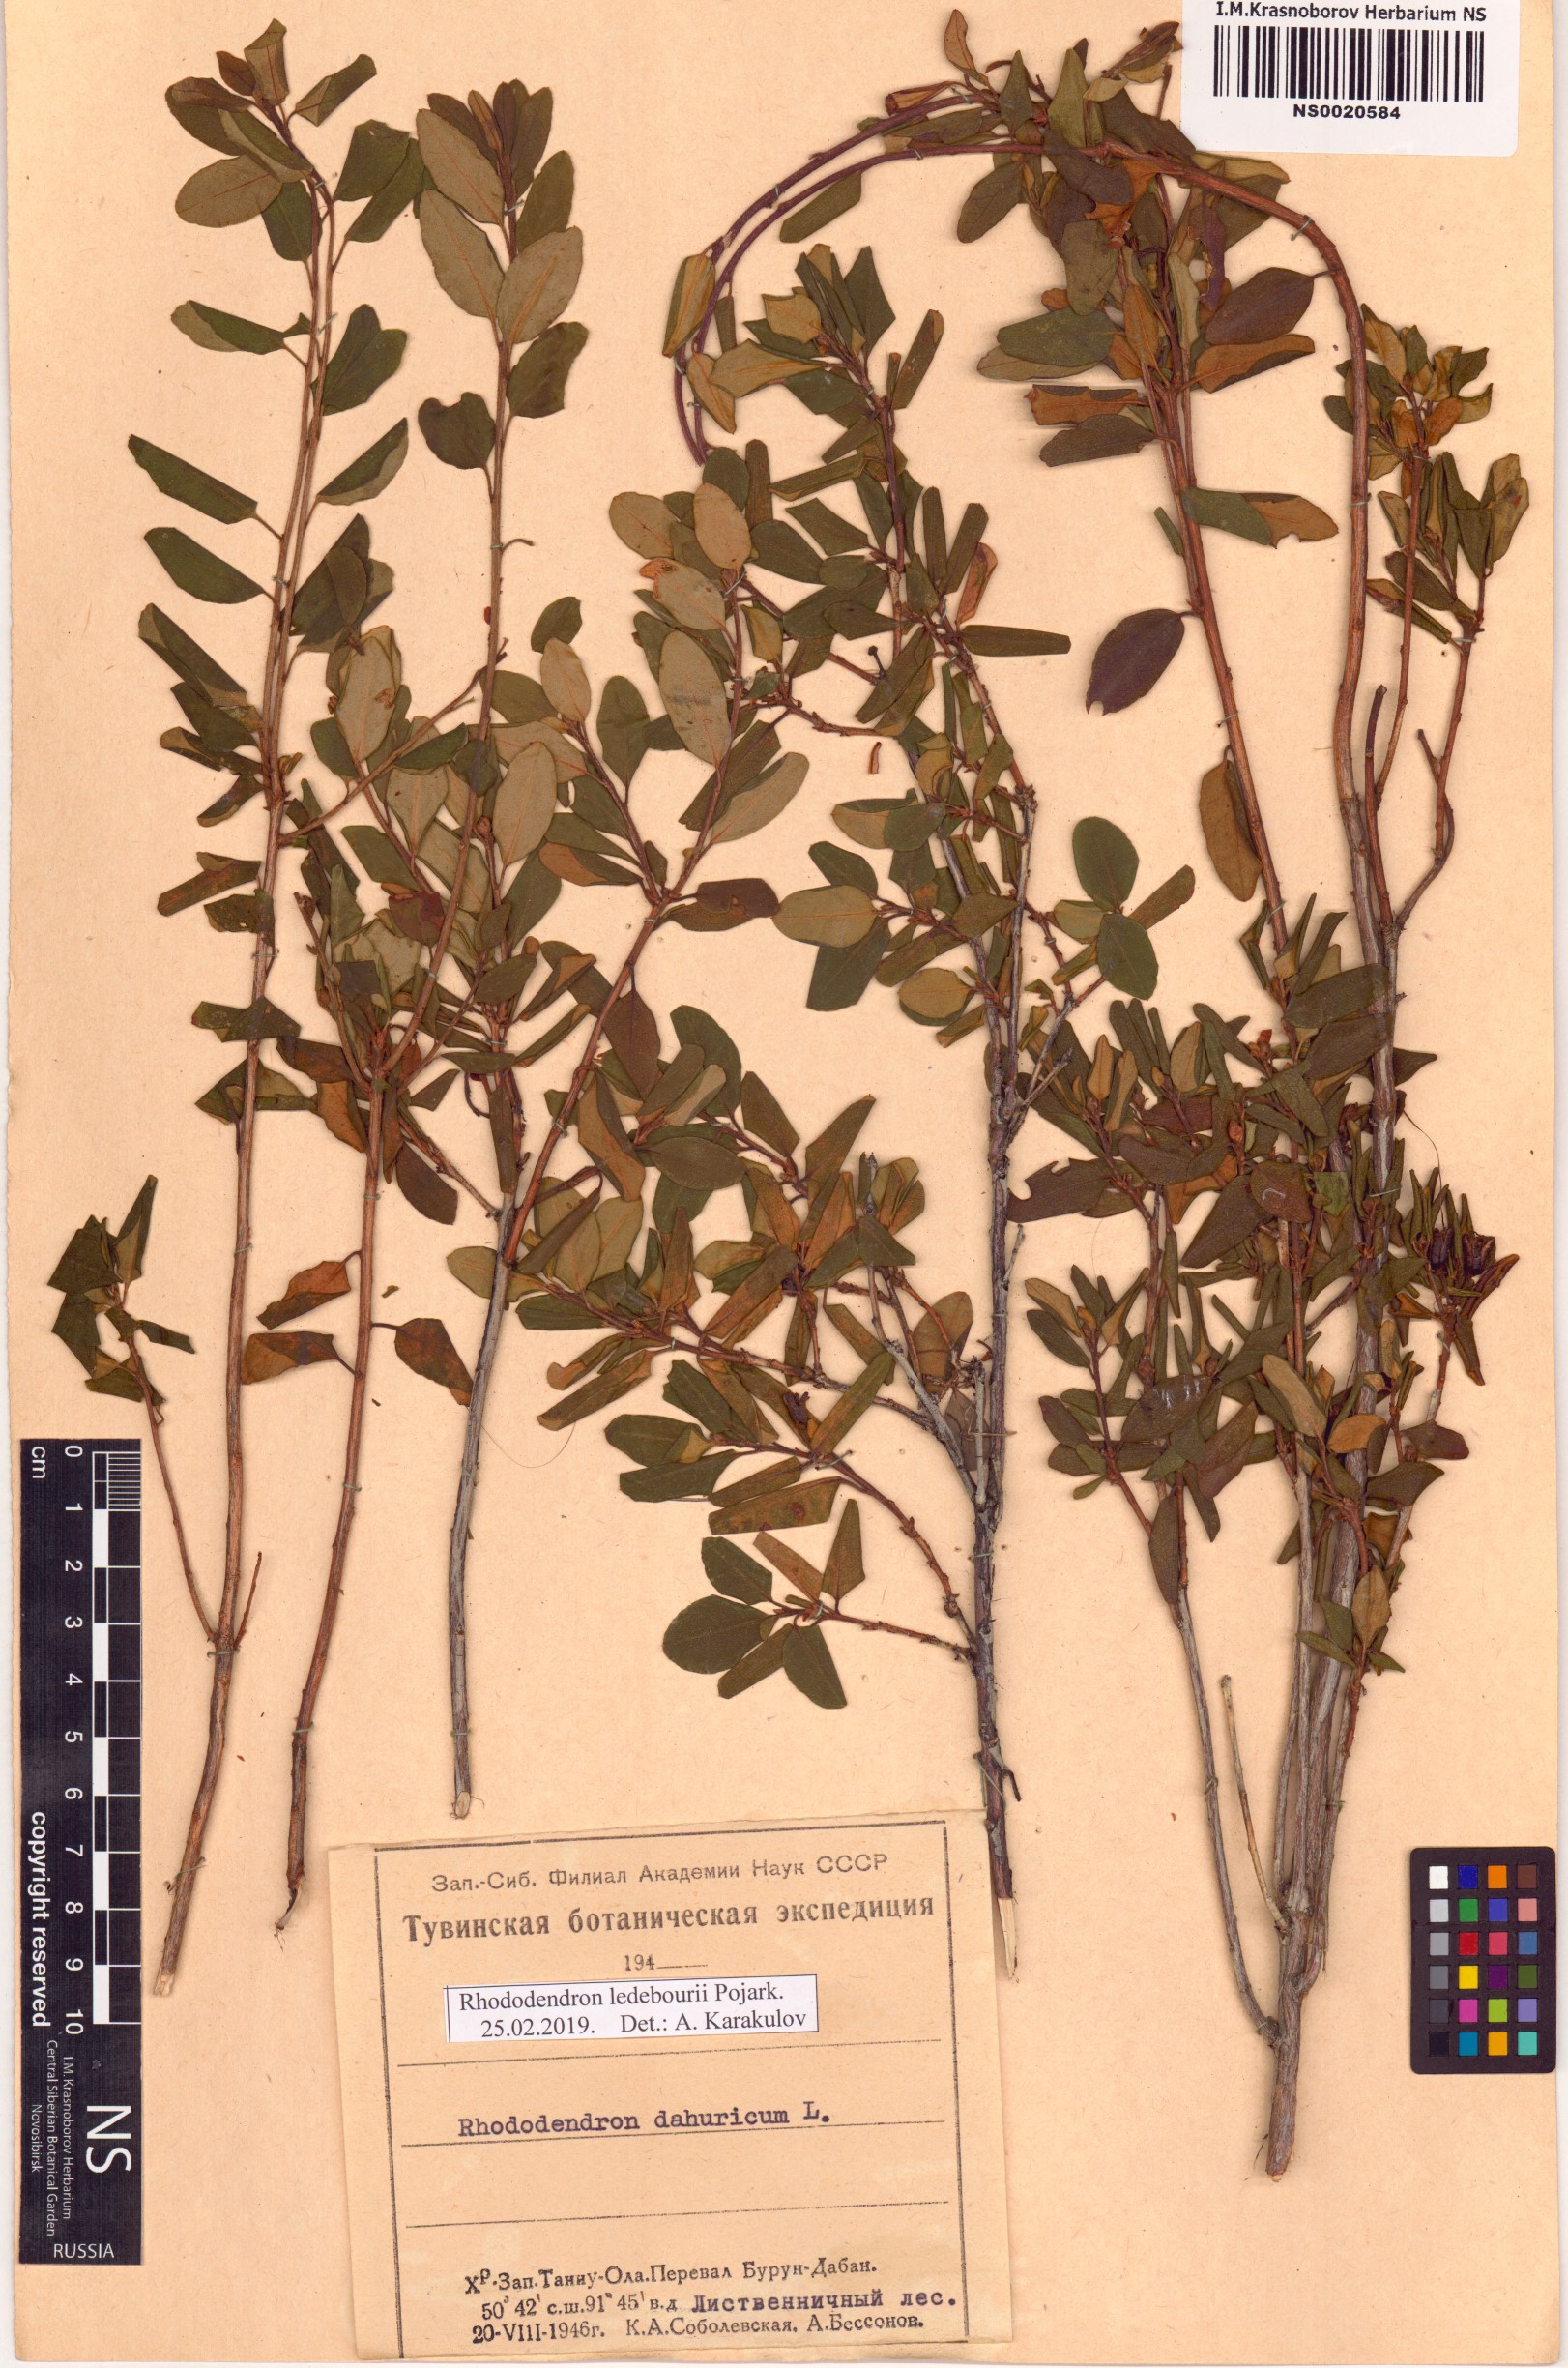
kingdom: Plantae
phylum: Tracheophyta
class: Magnoliopsida
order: Ericales
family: Ericaceae
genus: Rhododendron
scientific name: Rhododendron dauricum
